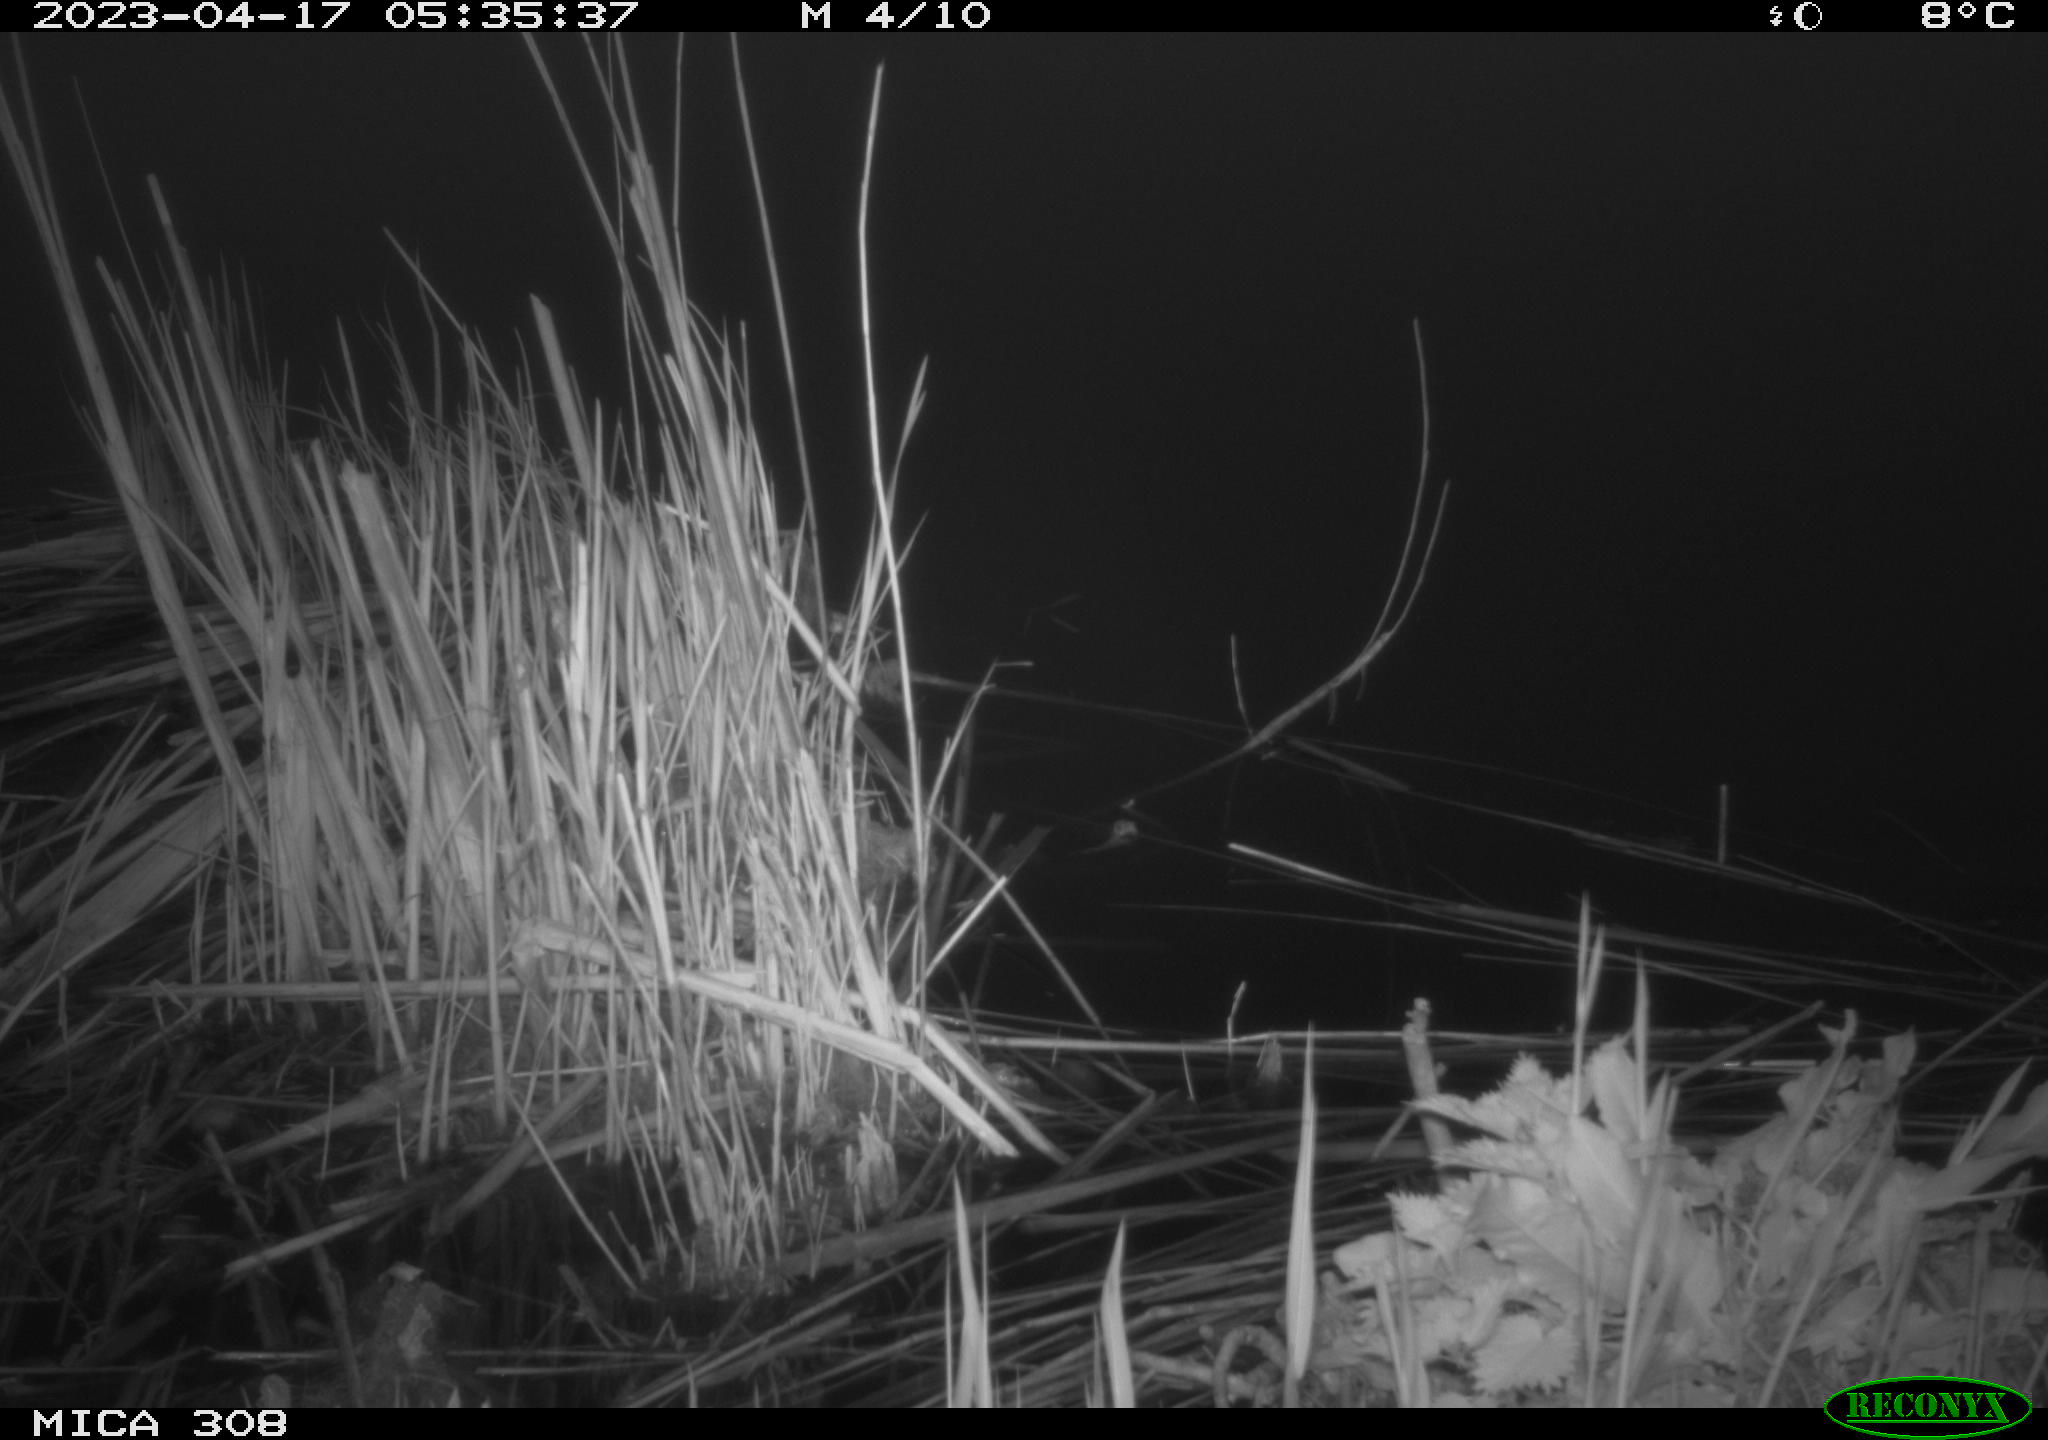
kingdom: Animalia
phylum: Chordata
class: Mammalia
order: Rodentia
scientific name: Rodentia
